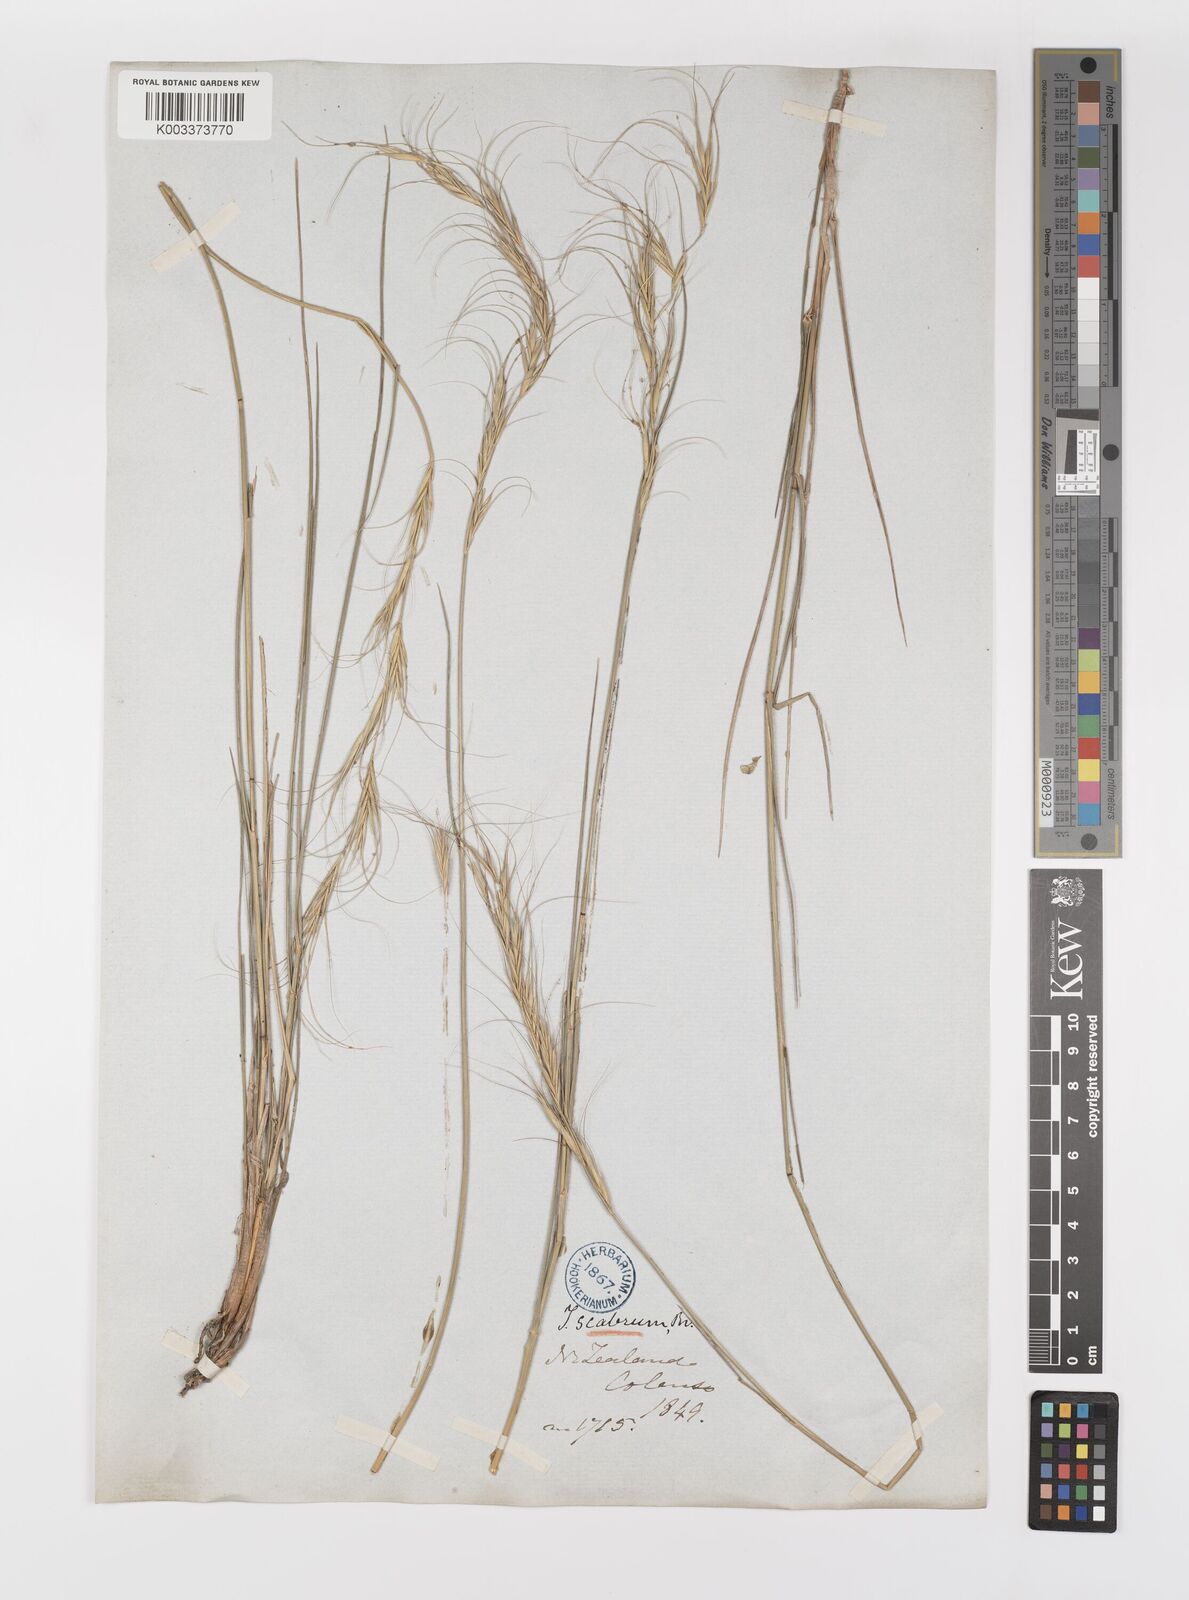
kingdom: Plantae
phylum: Tracheophyta
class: Liliopsida
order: Poales
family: Poaceae
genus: Anthosachne
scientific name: Anthosachne scabra
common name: Common wheatgrass
